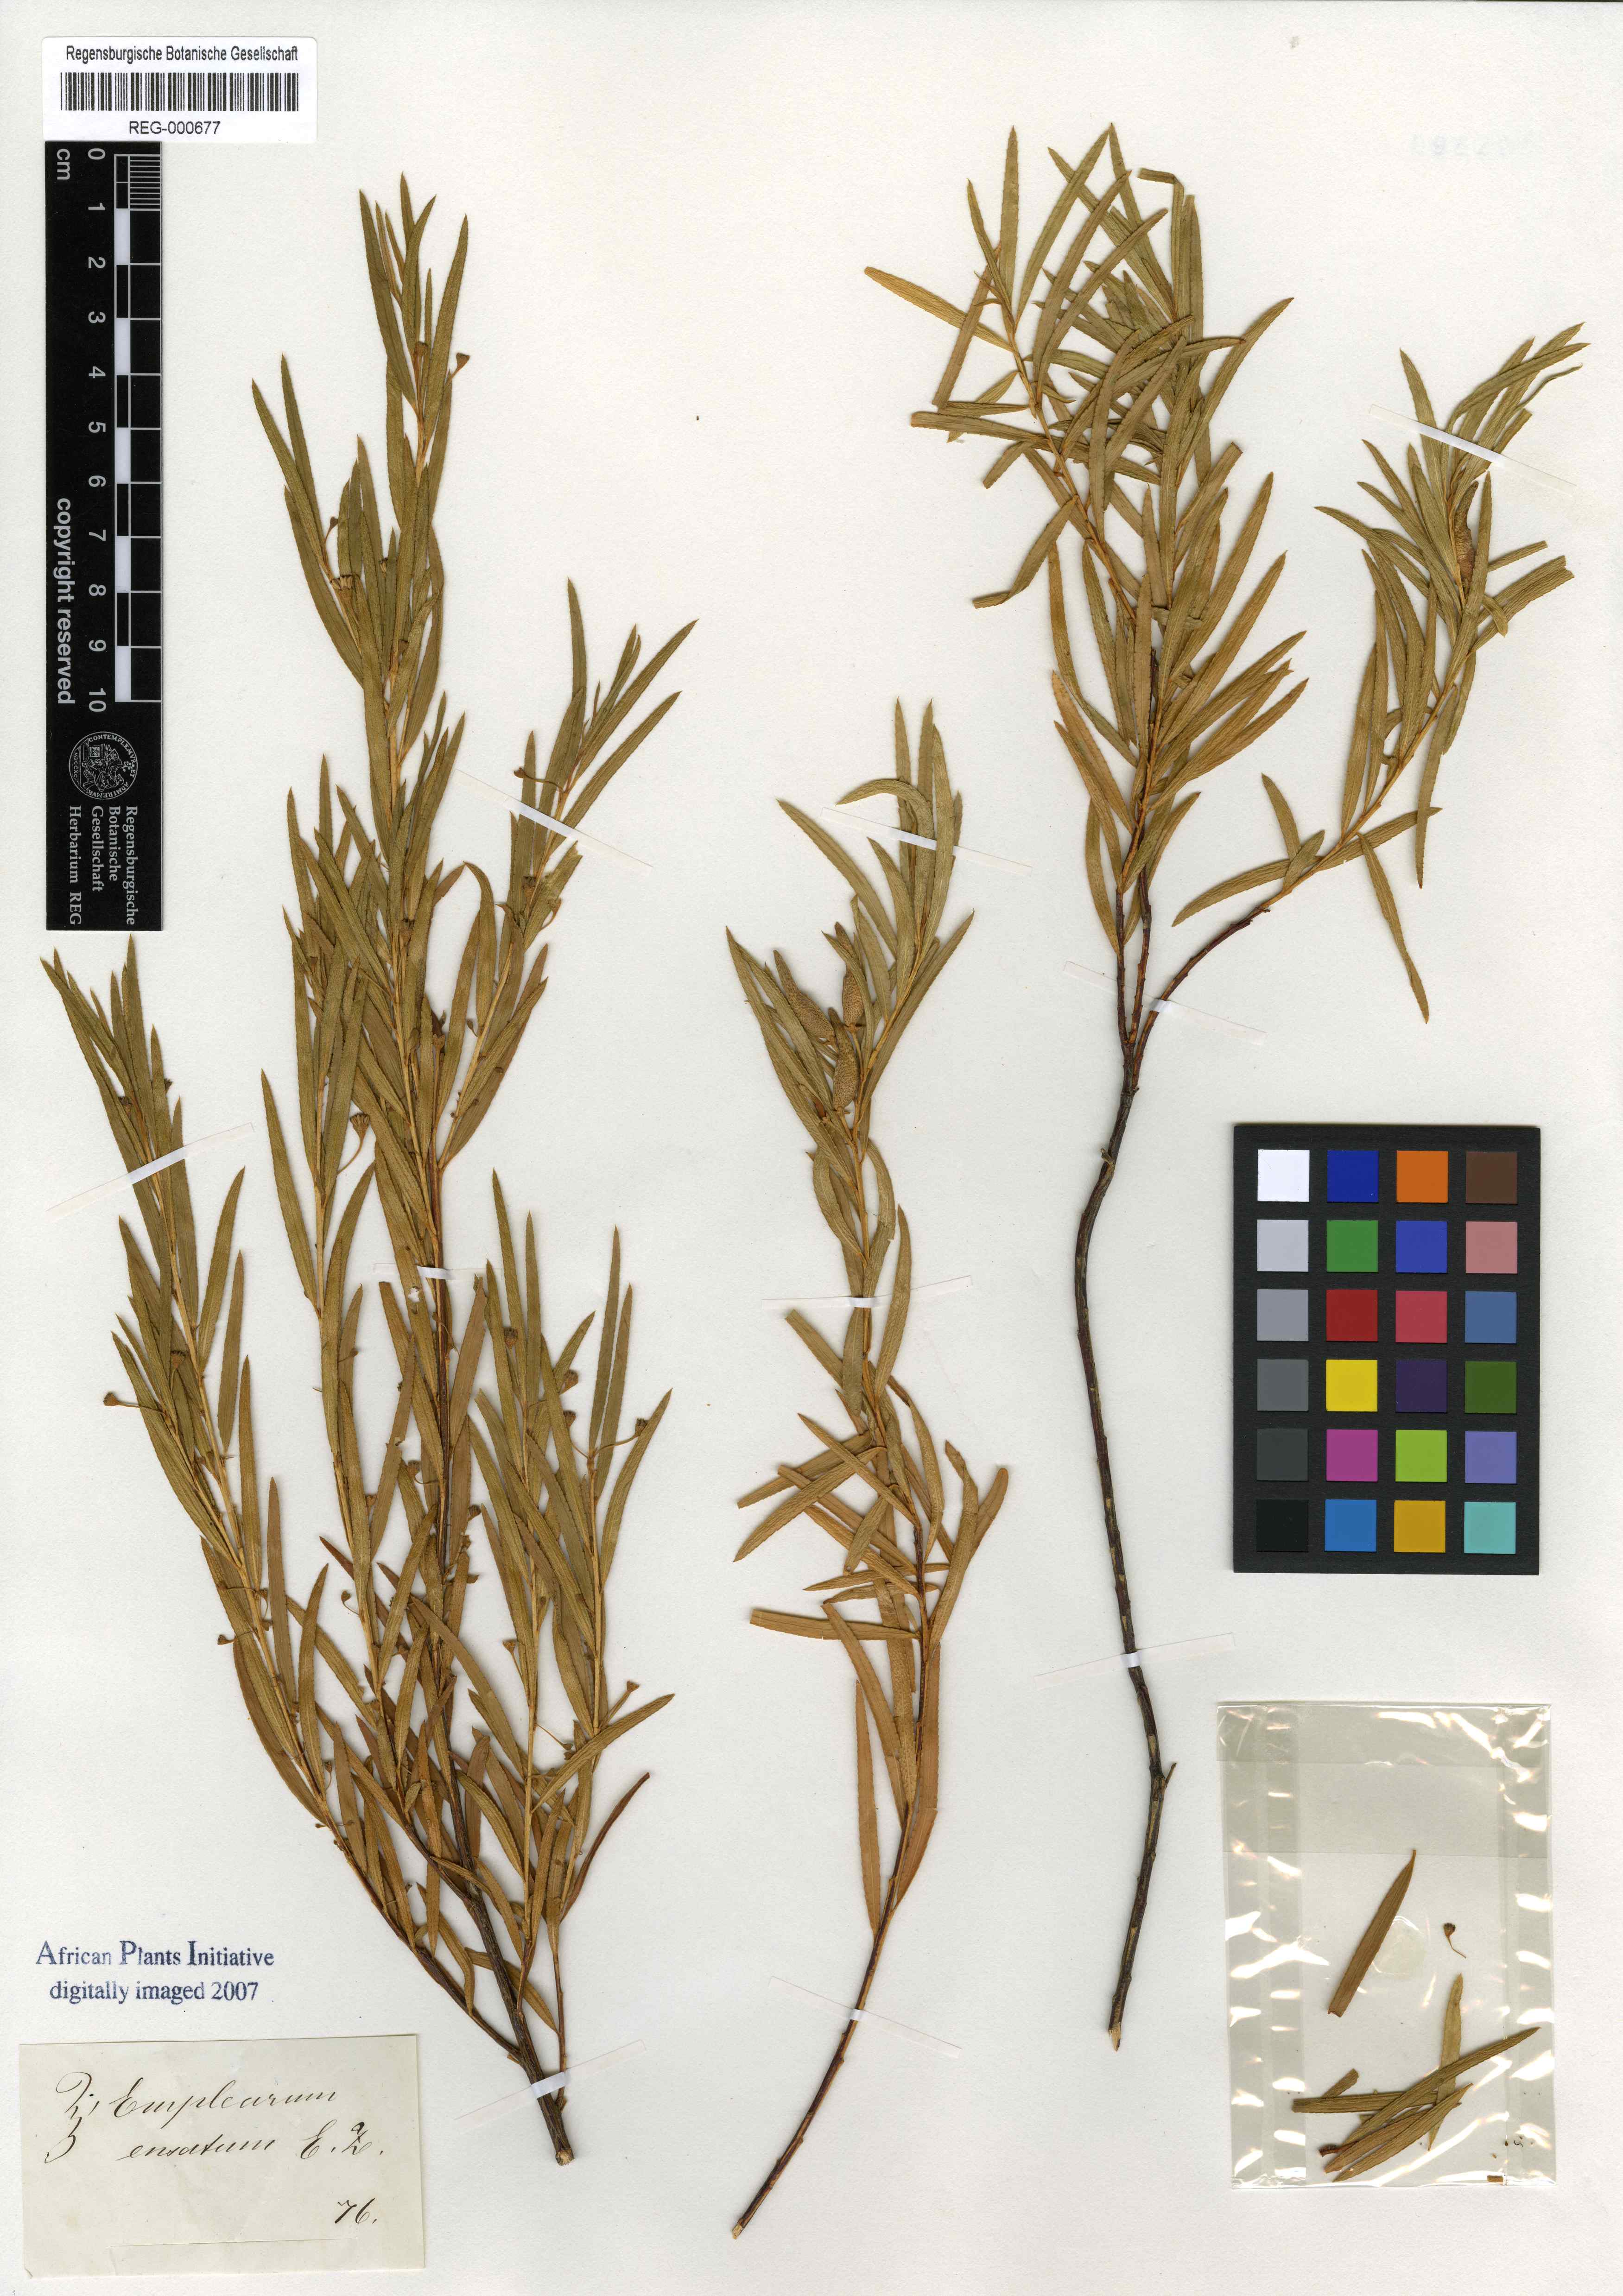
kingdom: Plantae
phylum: Tracheophyta
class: Magnoliopsida
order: Sapindales
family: Rutaceae
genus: Empleurum
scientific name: Empleurum unicapsulare
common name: False buchu
